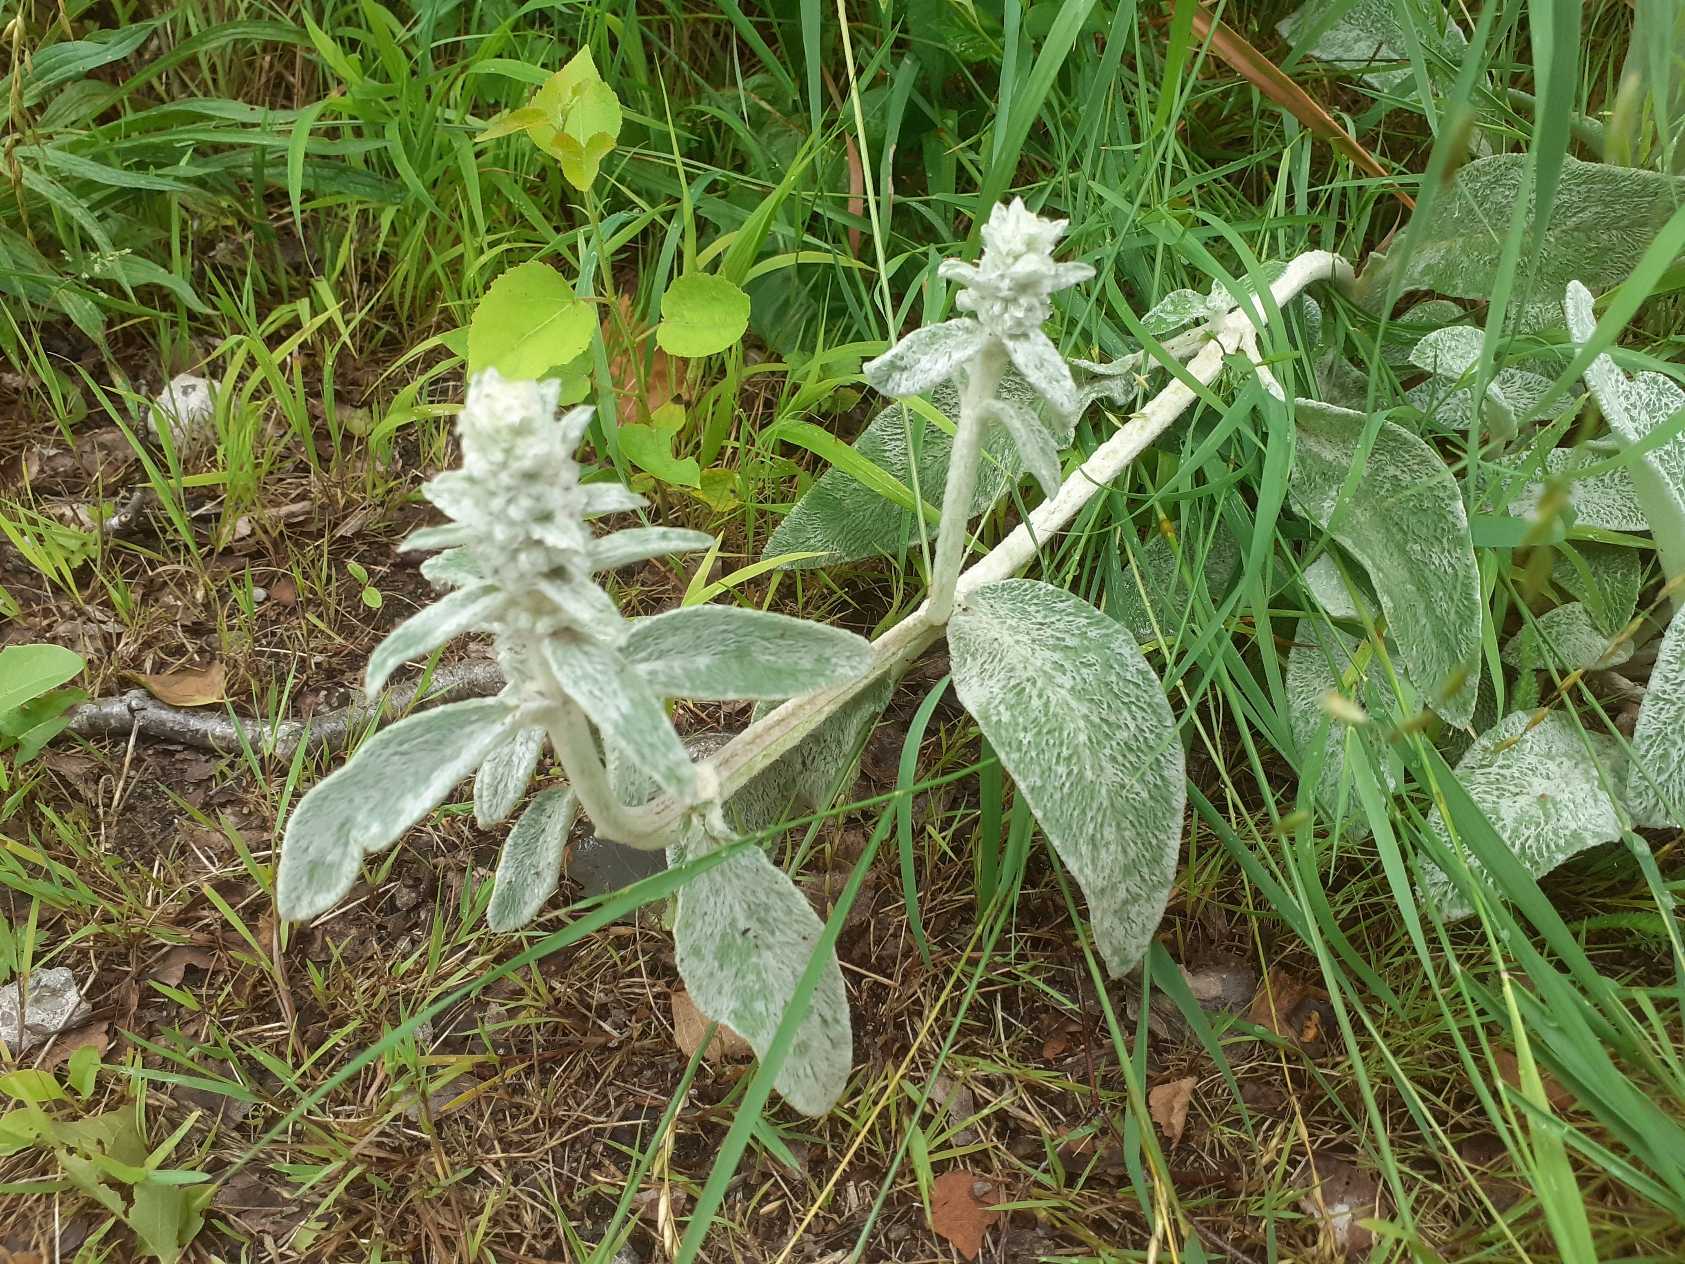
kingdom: Plantae
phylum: Tracheophyta
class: Magnoliopsida
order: Lamiales
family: Lamiaceae
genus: Stachys
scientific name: Stachys byzantina
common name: Lammeøre
